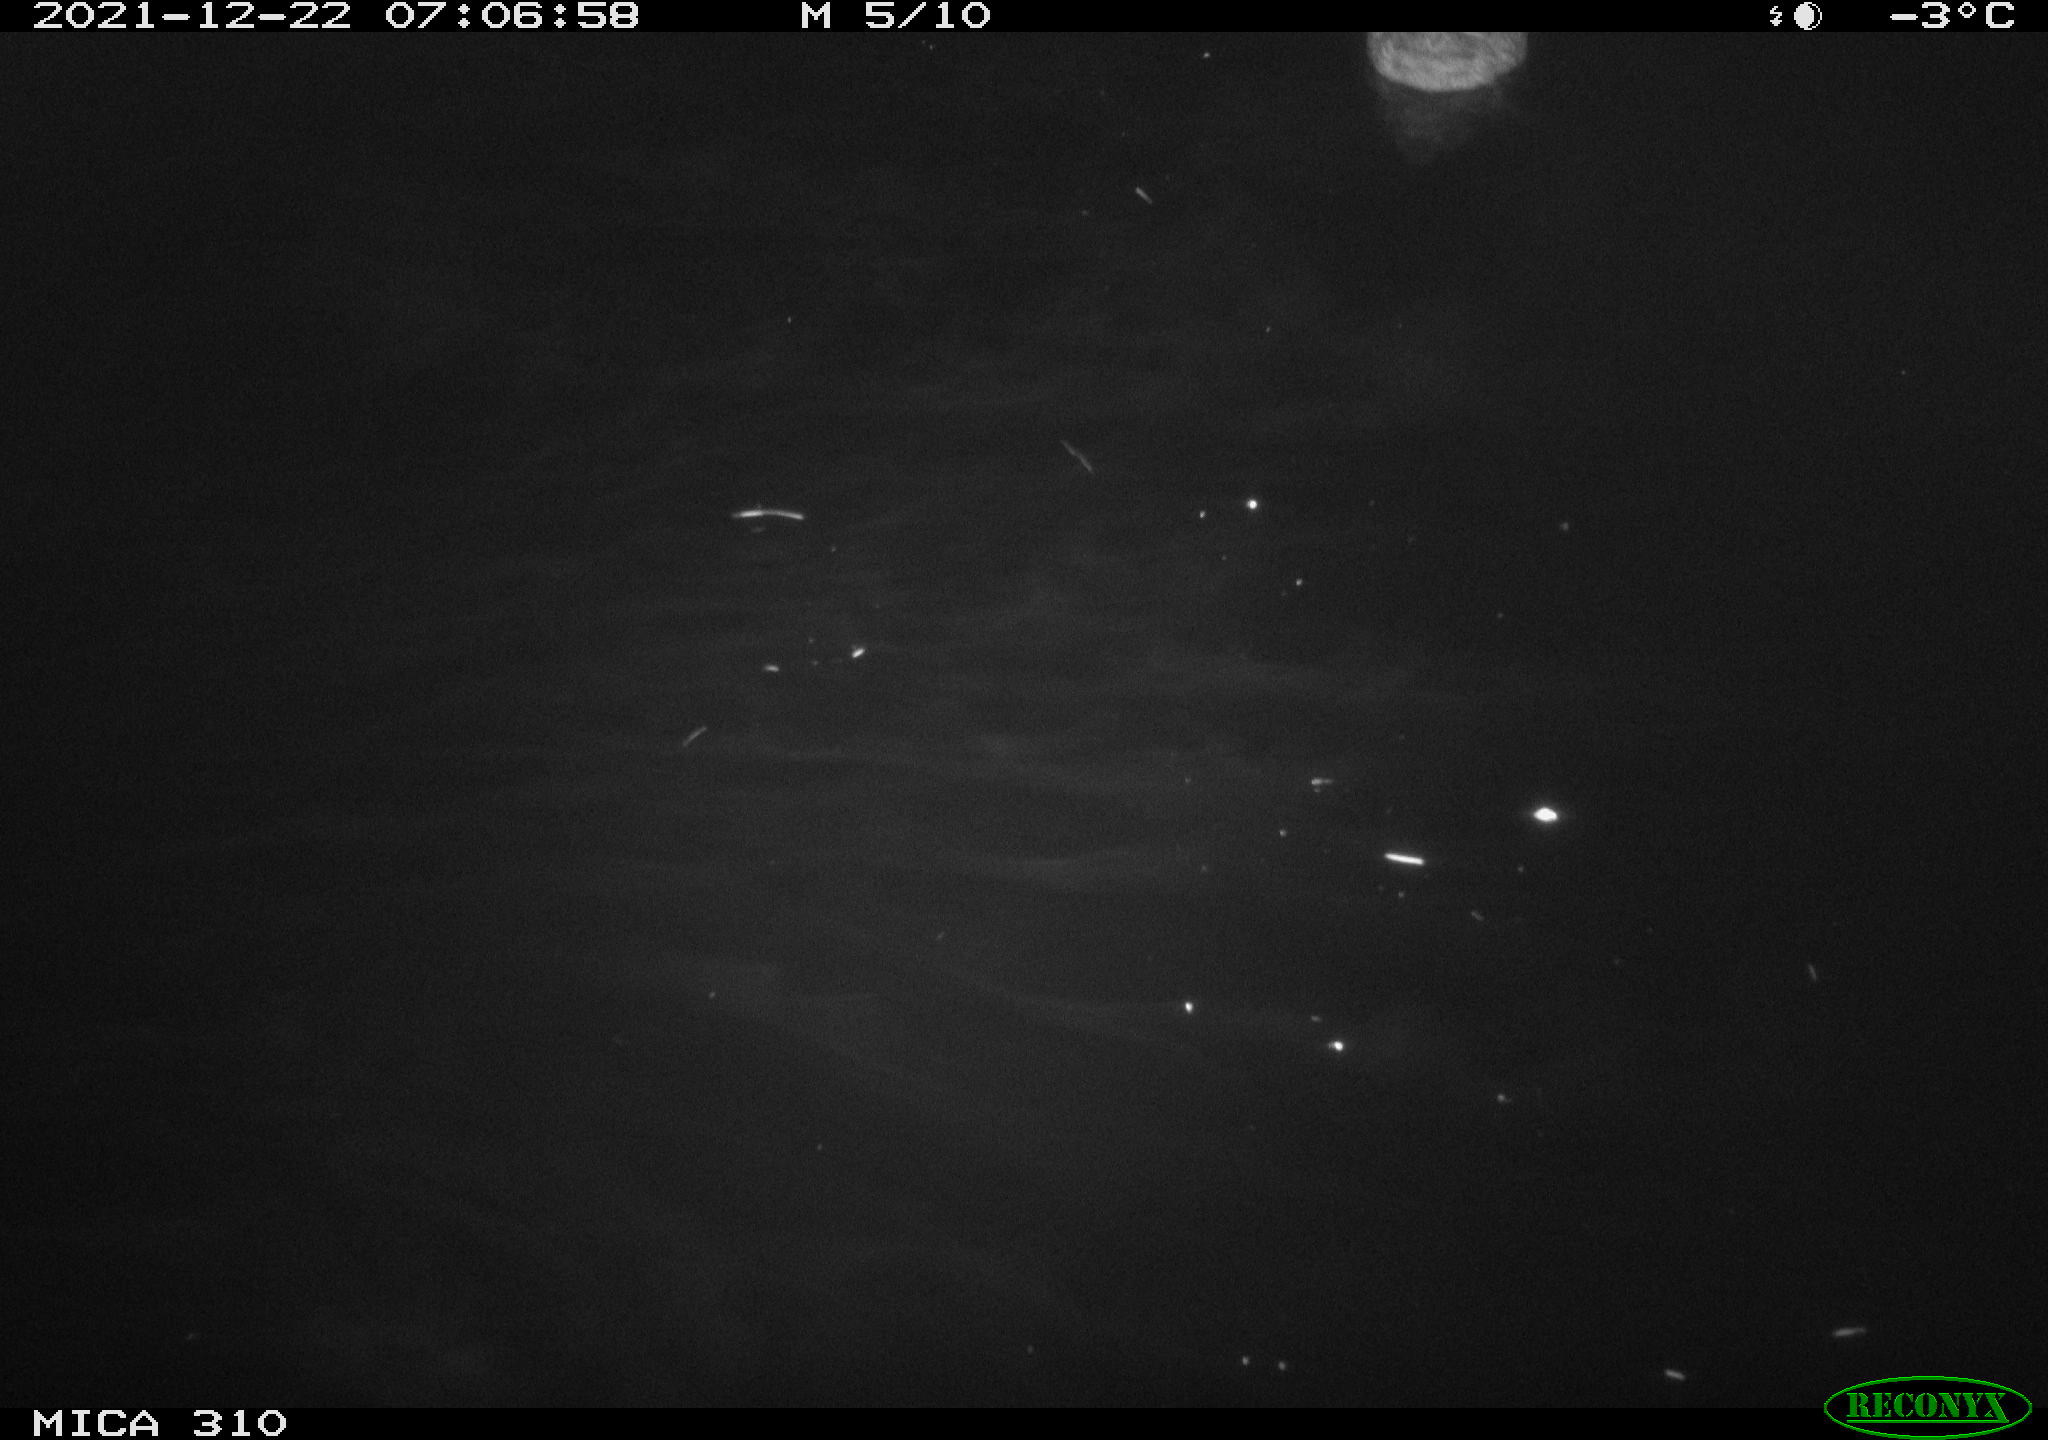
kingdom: Animalia
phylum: Chordata
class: Aves
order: Anseriformes
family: Anatidae
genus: Anas
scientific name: Anas platyrhynchos
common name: Mallard
